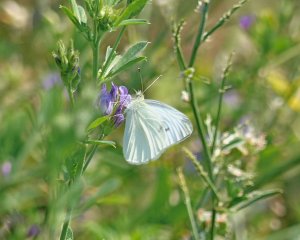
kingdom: Animalia
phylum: Arthropoda
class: Insecta
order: Lepidoptera
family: Pieridae
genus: Pieris
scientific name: Pieris rapae
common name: Cabbage White
